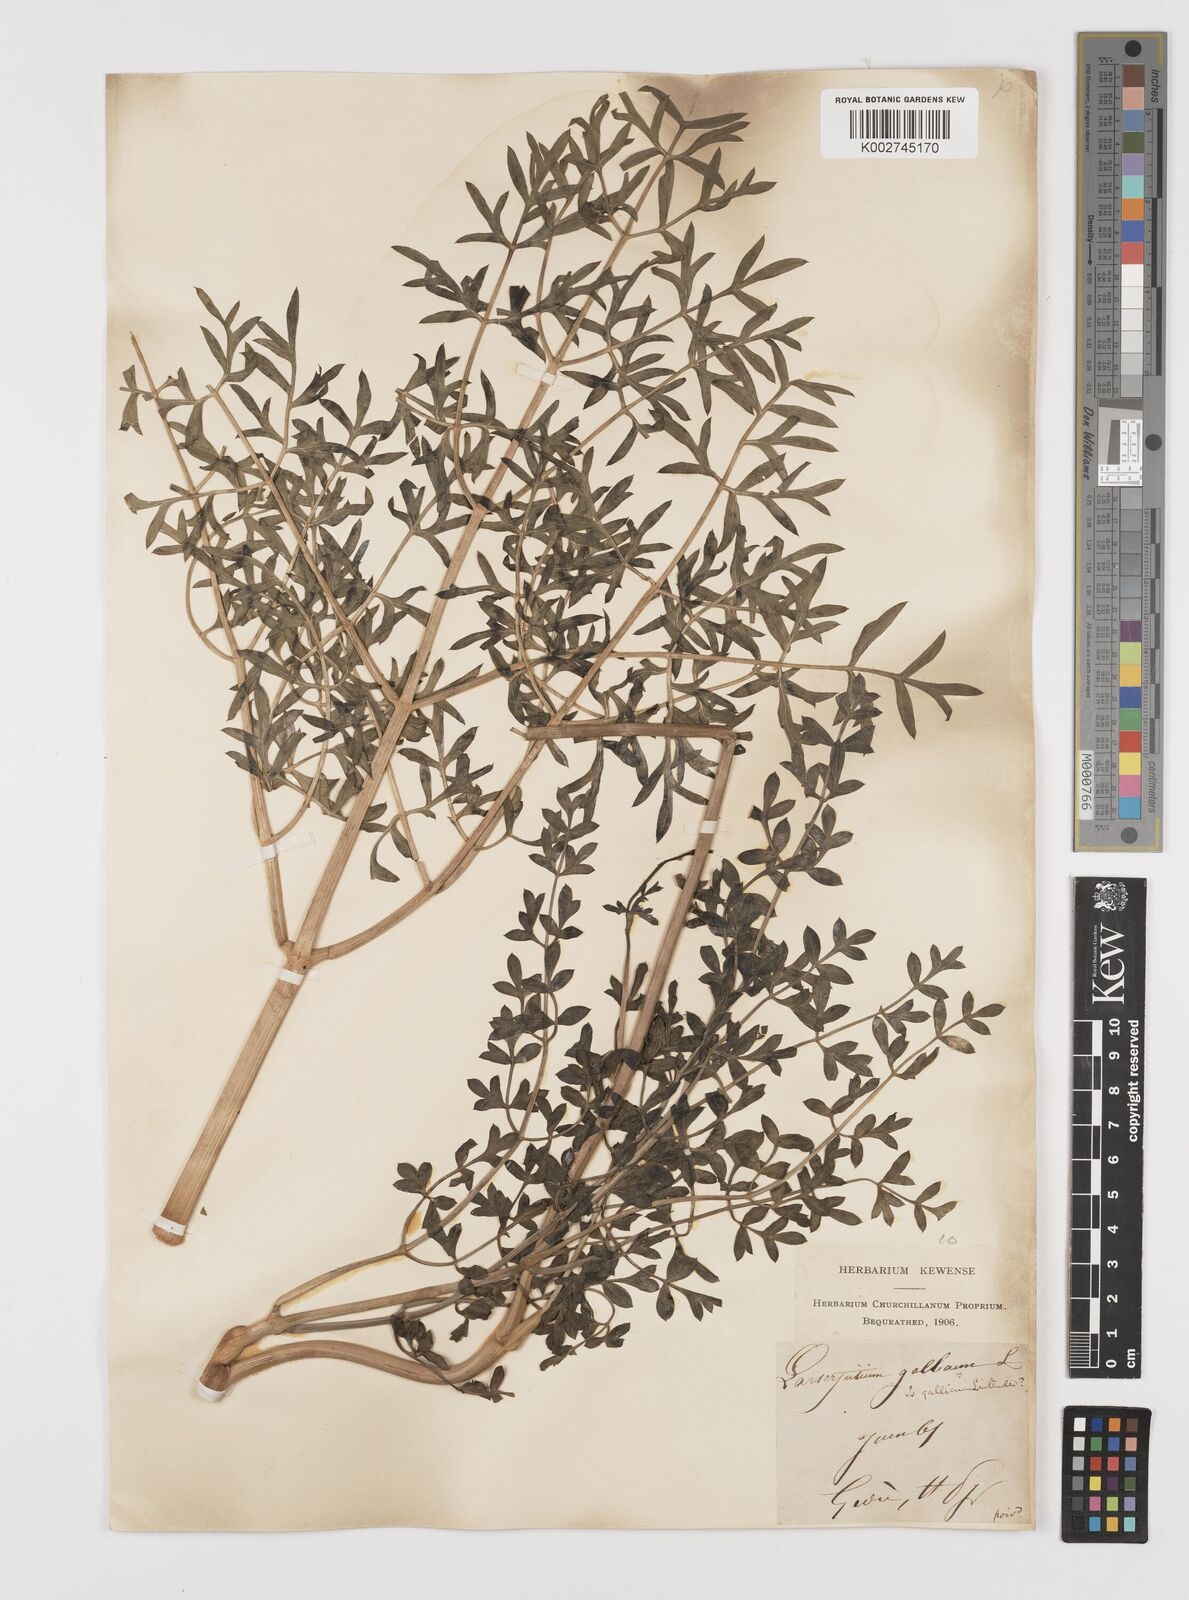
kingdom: Plantae
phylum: Tracheophyta
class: Magnoliopsida
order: Apiales
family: Apiaceae
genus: Laserpitium
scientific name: Laserpitium gallicum
